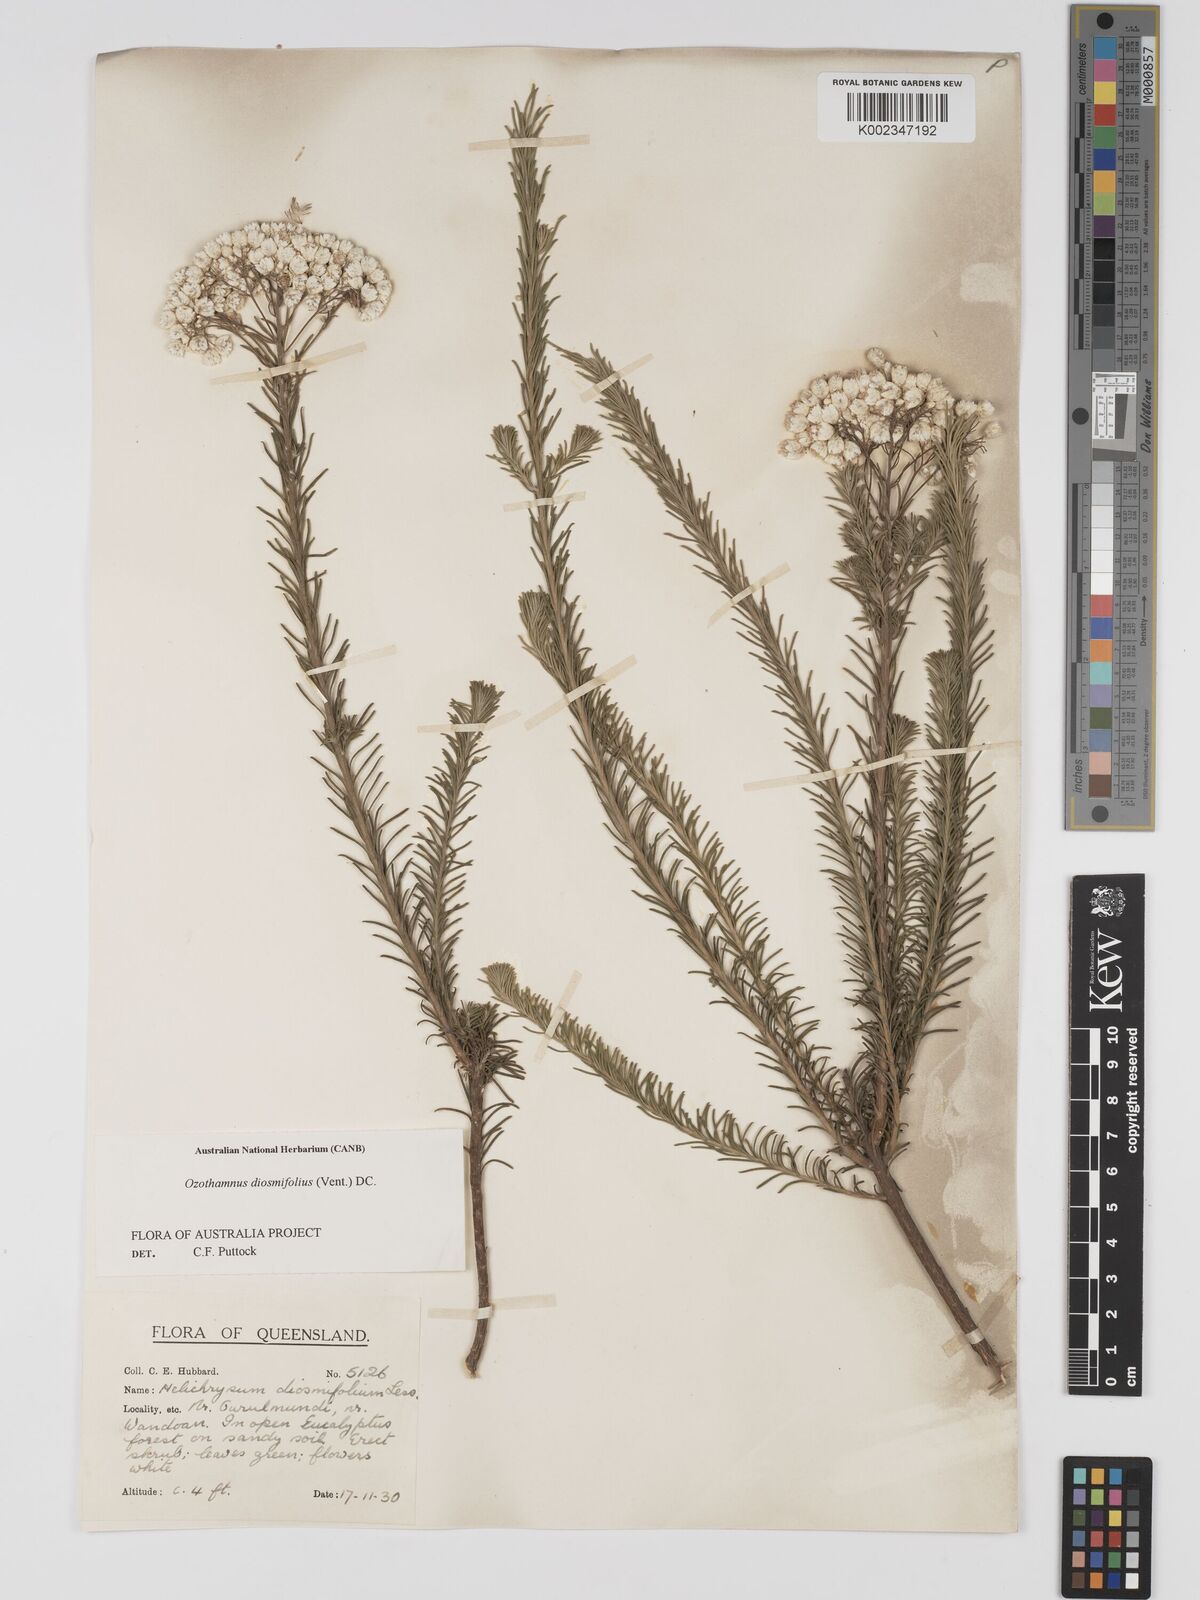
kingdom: Plantae
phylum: Tracheophyta
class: Magnoliopsida
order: Asterales
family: Asteraceae
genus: Ozothamnus
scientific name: Ozothamnus diosmifolius
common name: White-dogwood
